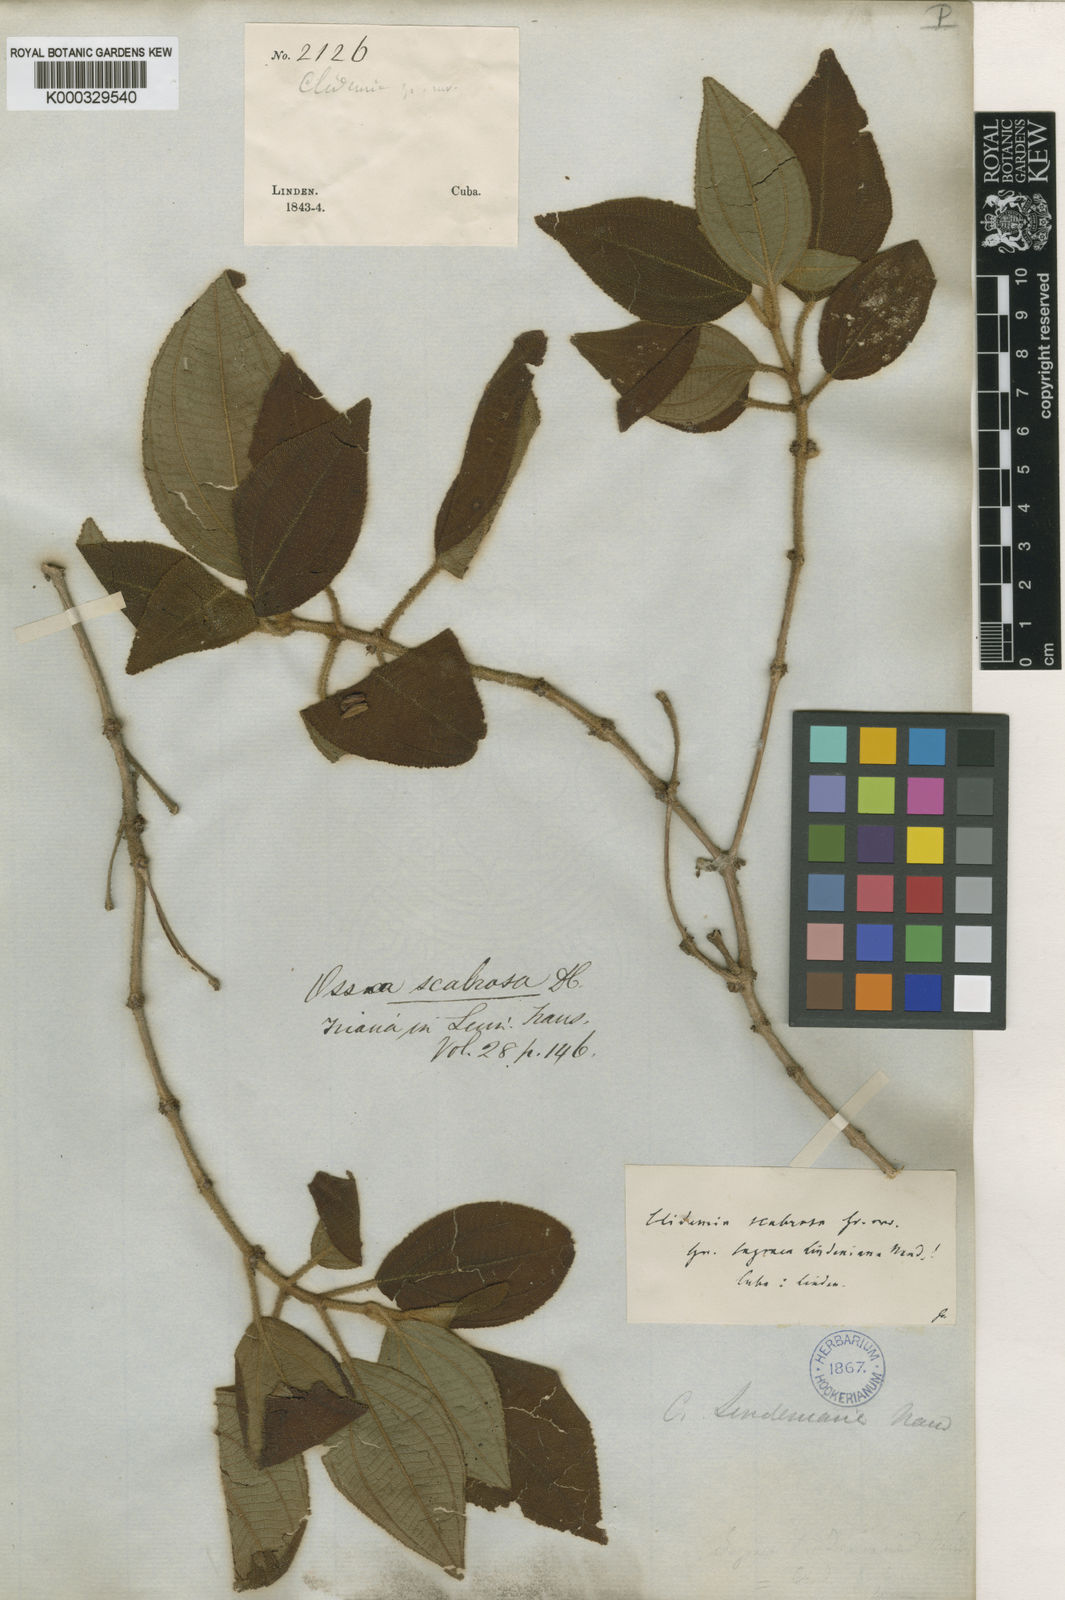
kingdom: Plantae
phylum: Tracheophyta
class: Magnoliopsida
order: Myrtales
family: Melastomataceae
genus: Miconia
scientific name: Miconia scabrosa
